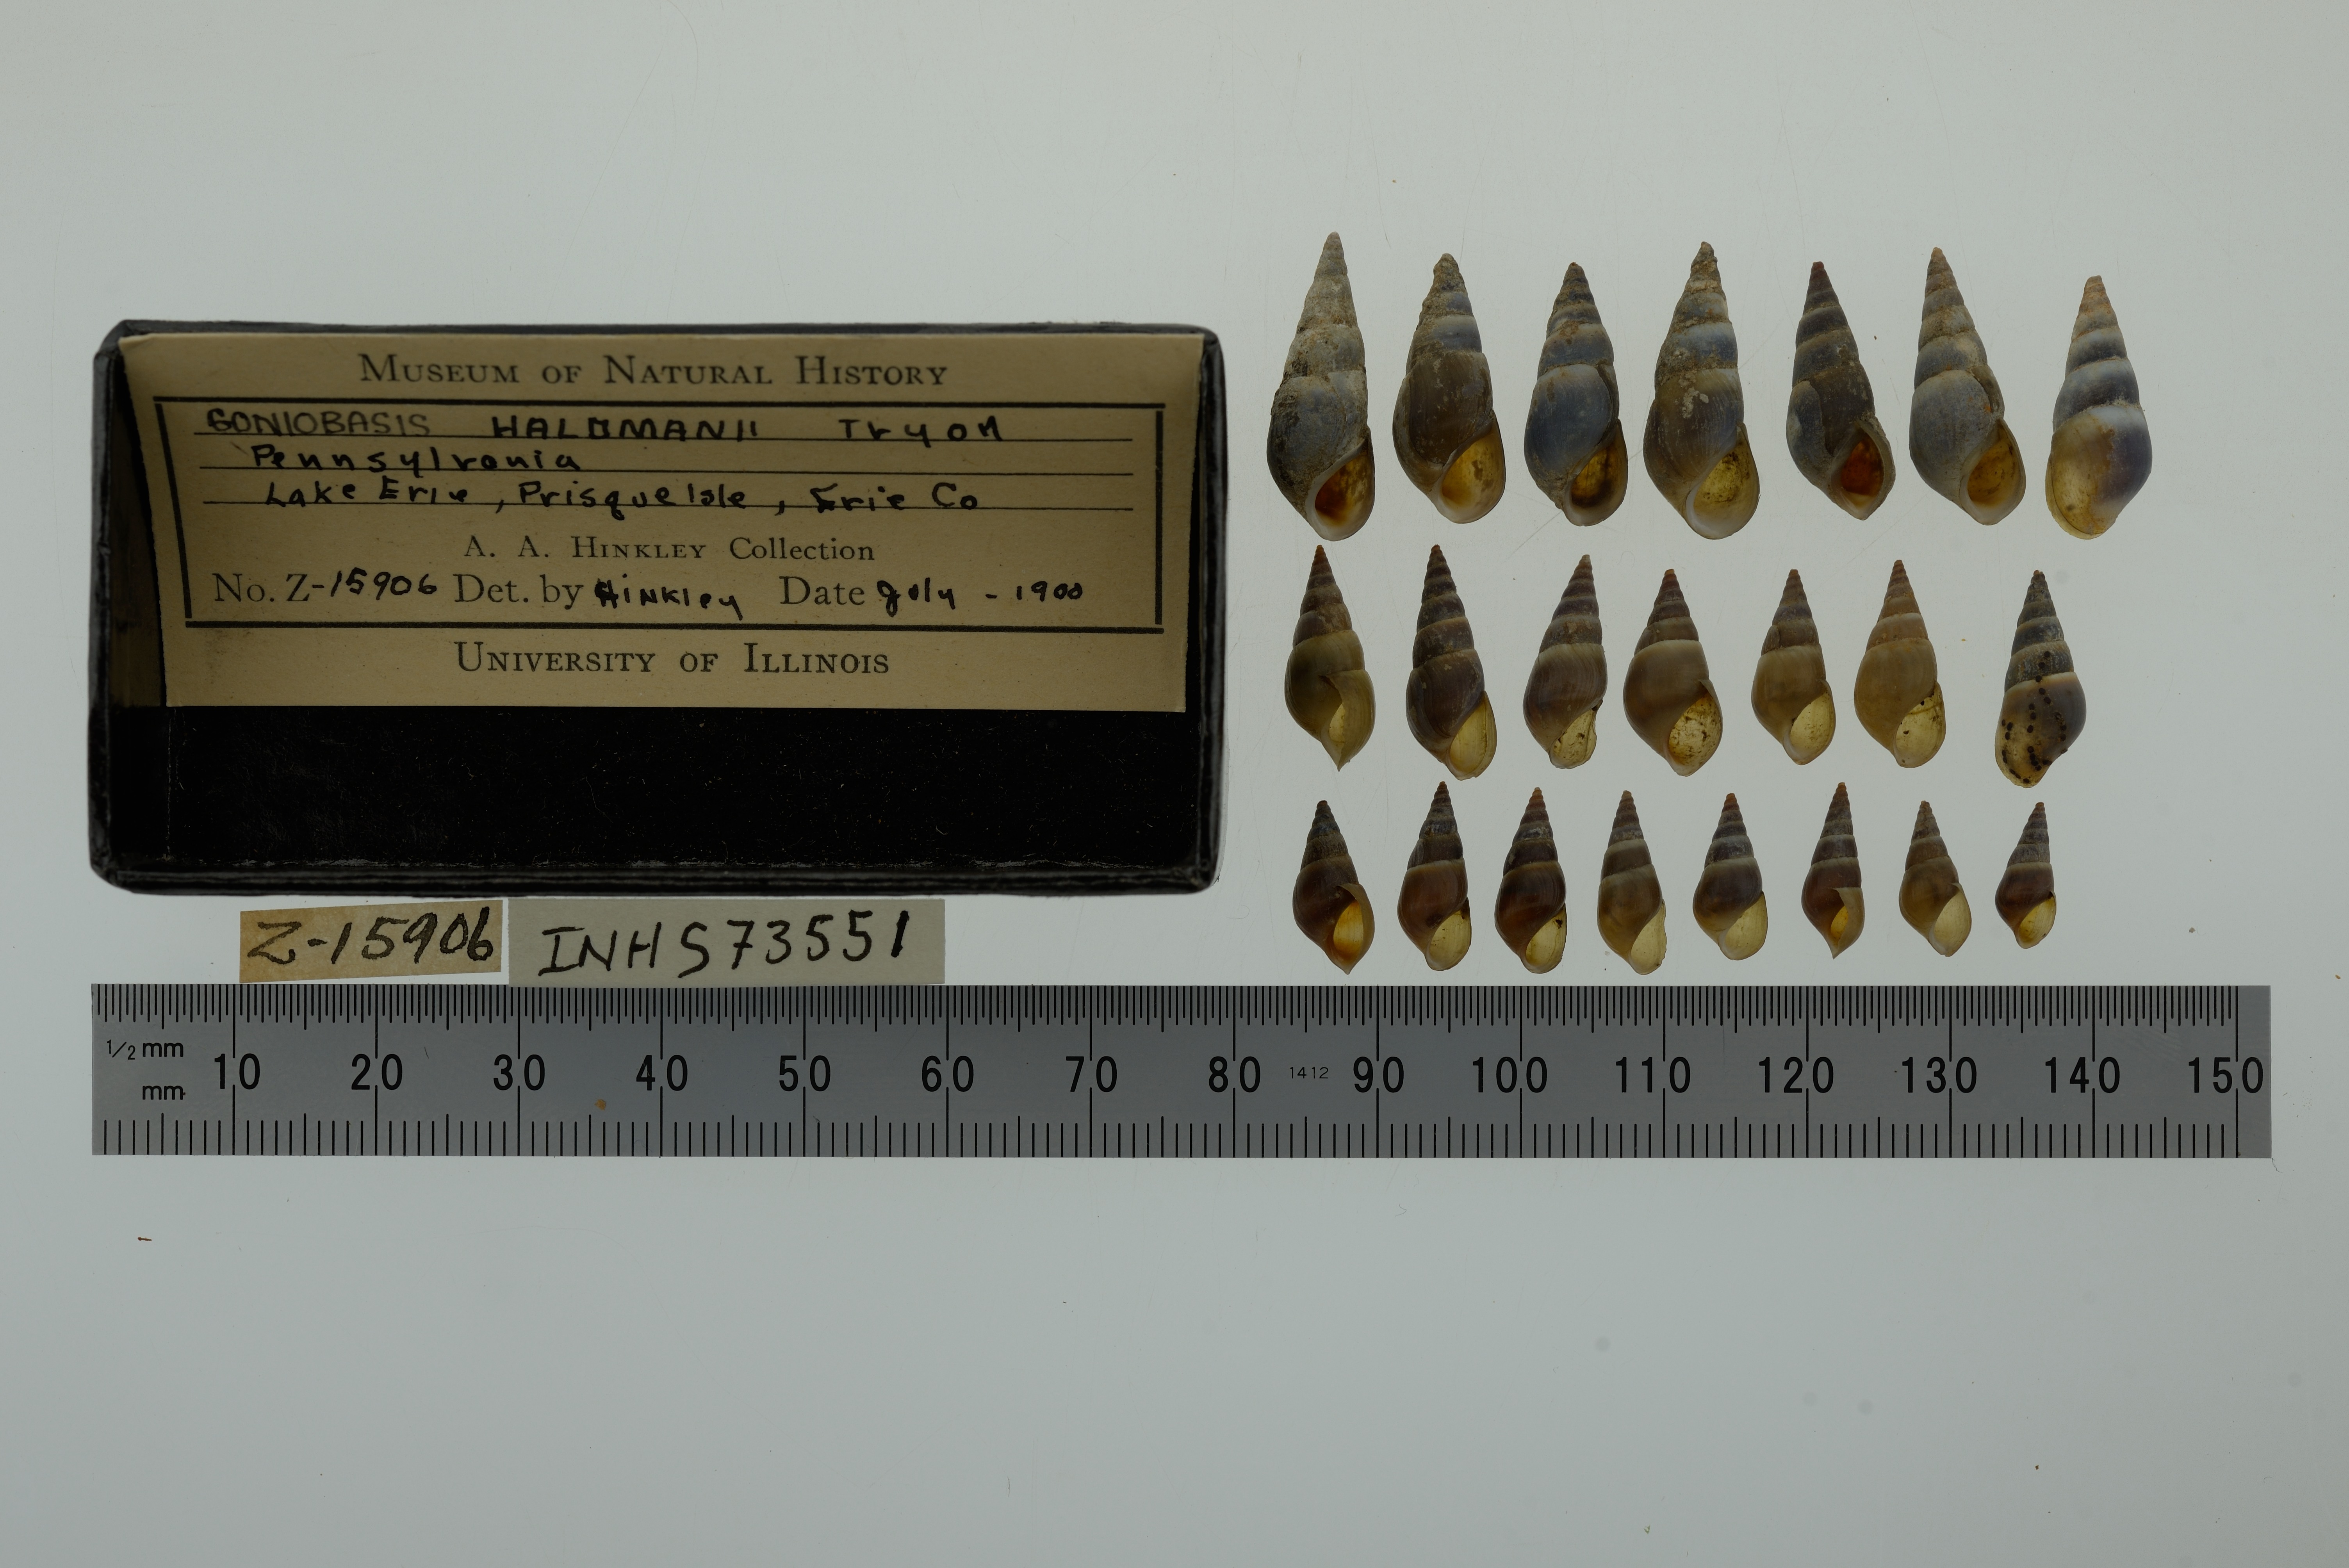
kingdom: Animalia
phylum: Mollusca
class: Gastropoda
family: Pleuroceridae
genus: Elimia
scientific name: Elimia livescens
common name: Liver elimia
